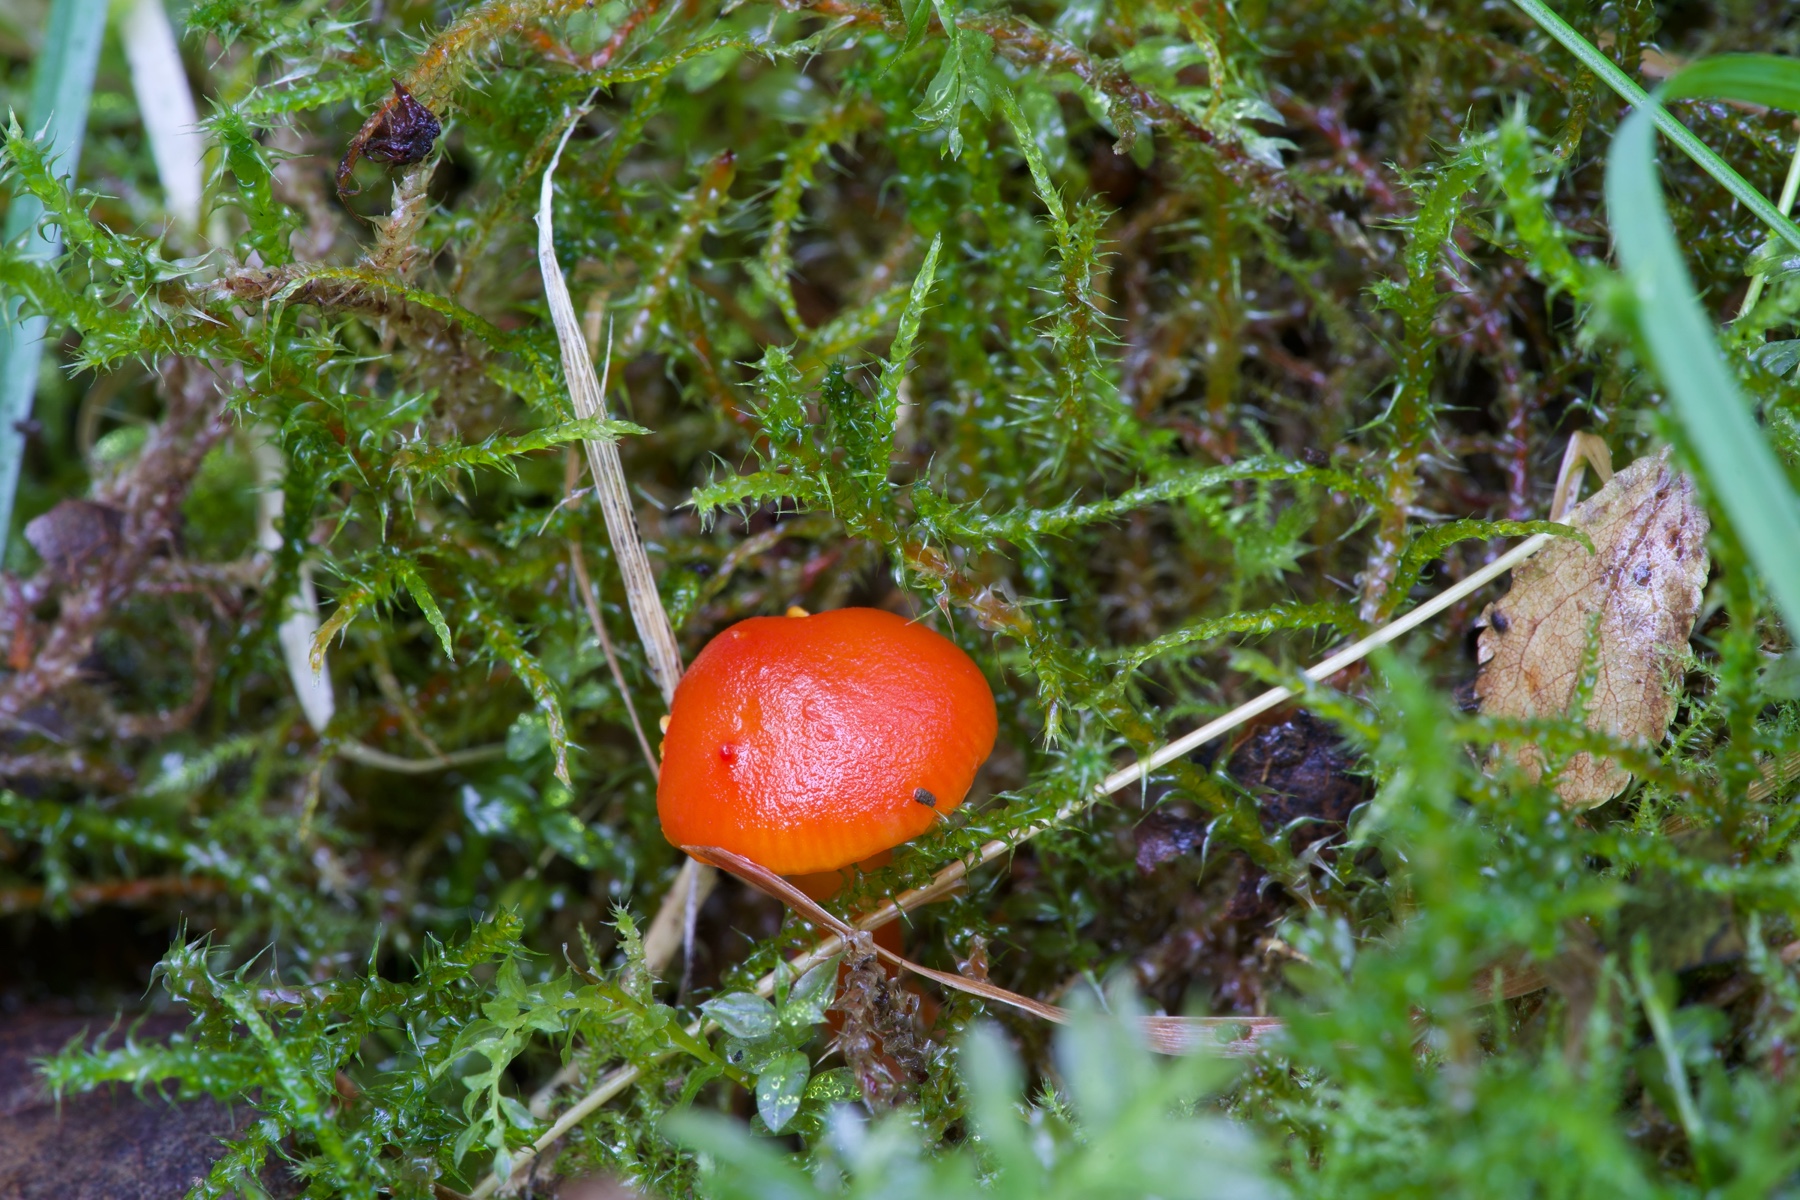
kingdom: Fungi
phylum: Basidiomycota
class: Agaricomycetes
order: Agaricales
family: Hygrophoraceae
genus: Hygrocybe
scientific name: Hygrocybe ceracea
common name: voksgul vokshat
